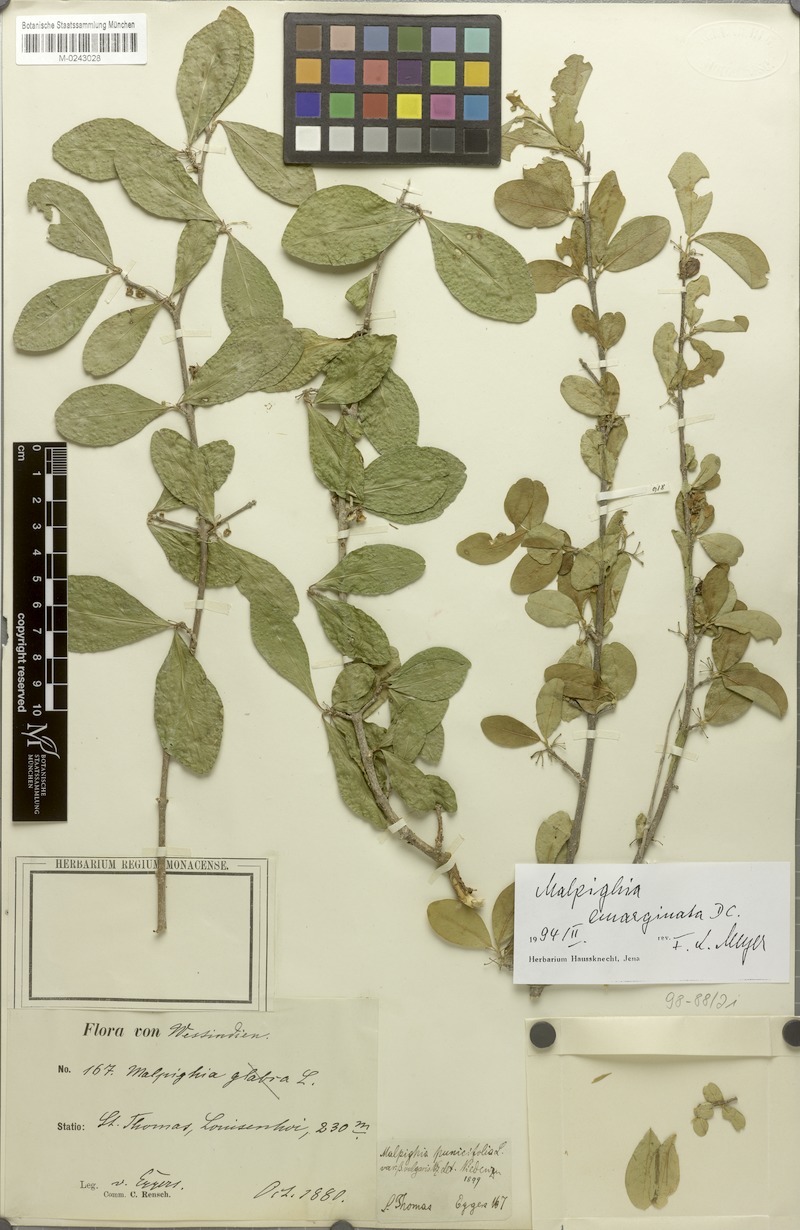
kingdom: Plantae
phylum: Tracheophyta
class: Magnoliopsida
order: Malpighiales
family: Malpighiaceae
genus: Malpighia
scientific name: Malpighia emarginata
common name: Barbados cherry
